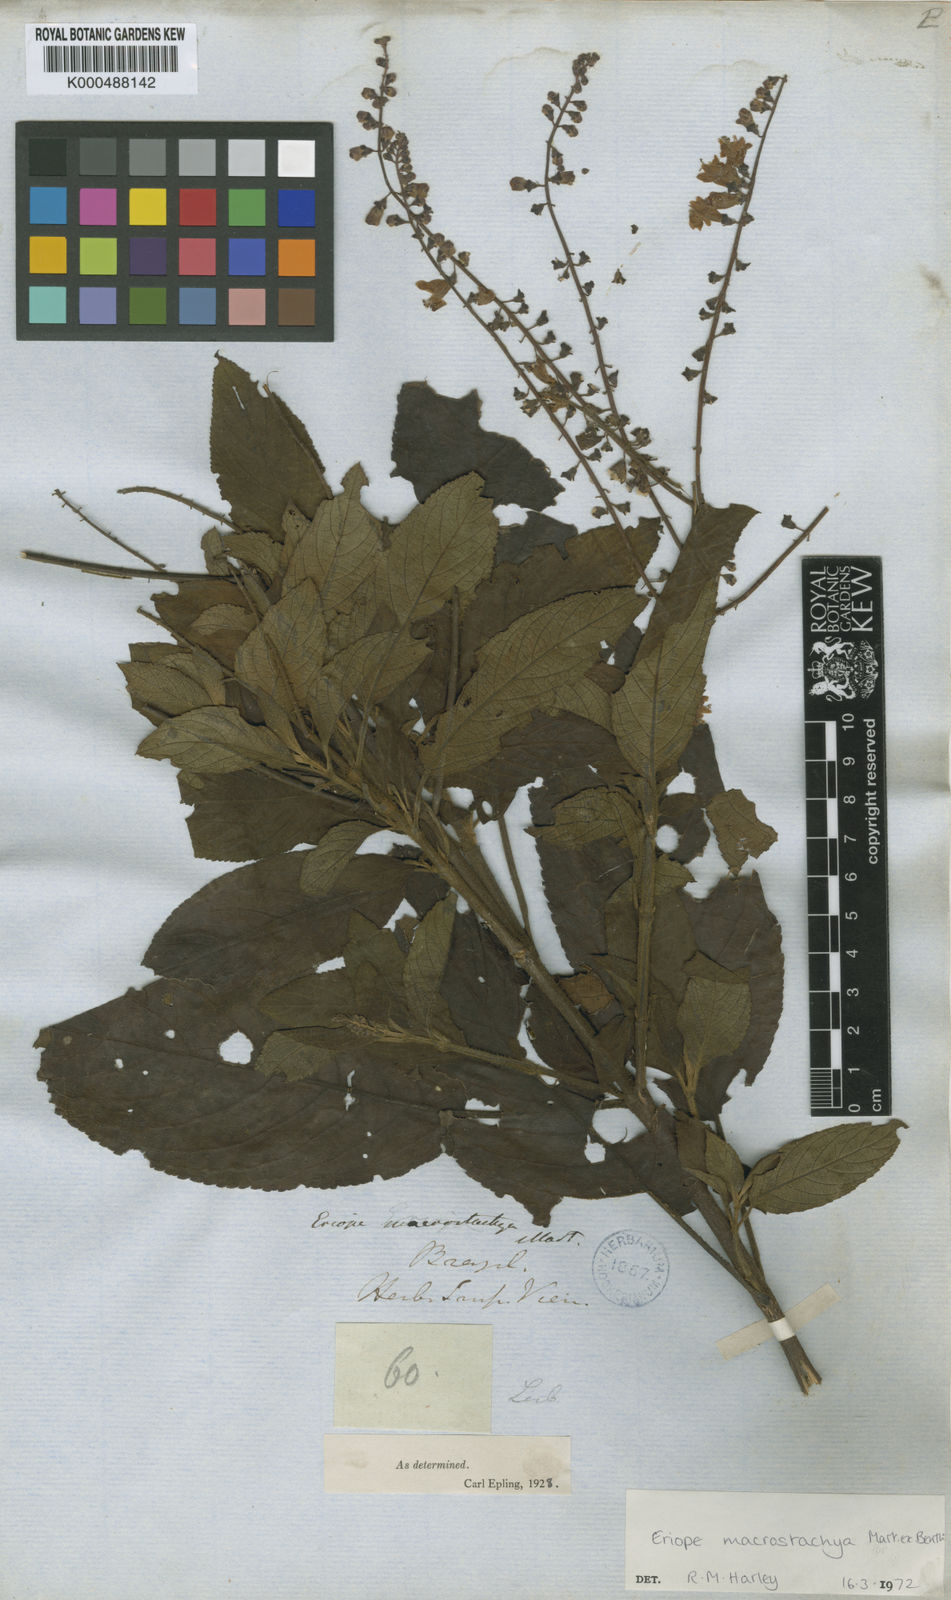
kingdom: Plantae
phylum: Tracheophyta
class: Magnoliopsida
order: Lamiales
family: Lamiaceae
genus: Eriope
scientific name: Eriope macrostachya
